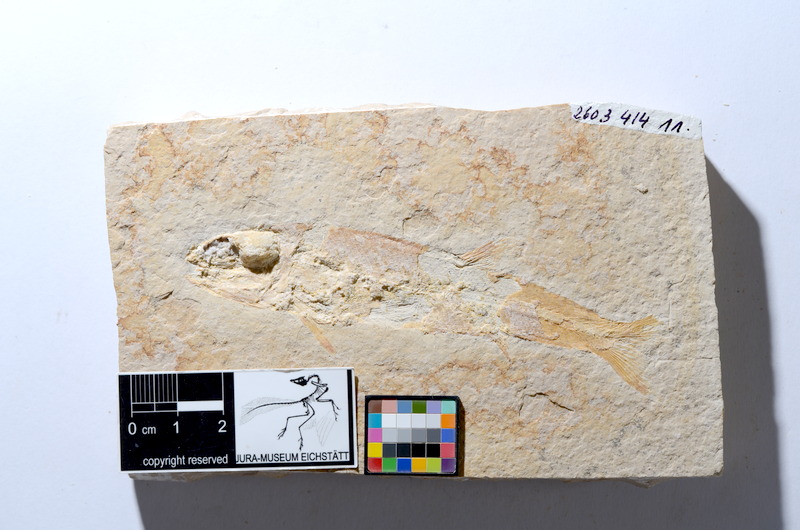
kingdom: Animalia
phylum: Chordata
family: Ophiopsiellidae
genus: Furo
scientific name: Furo angustus
